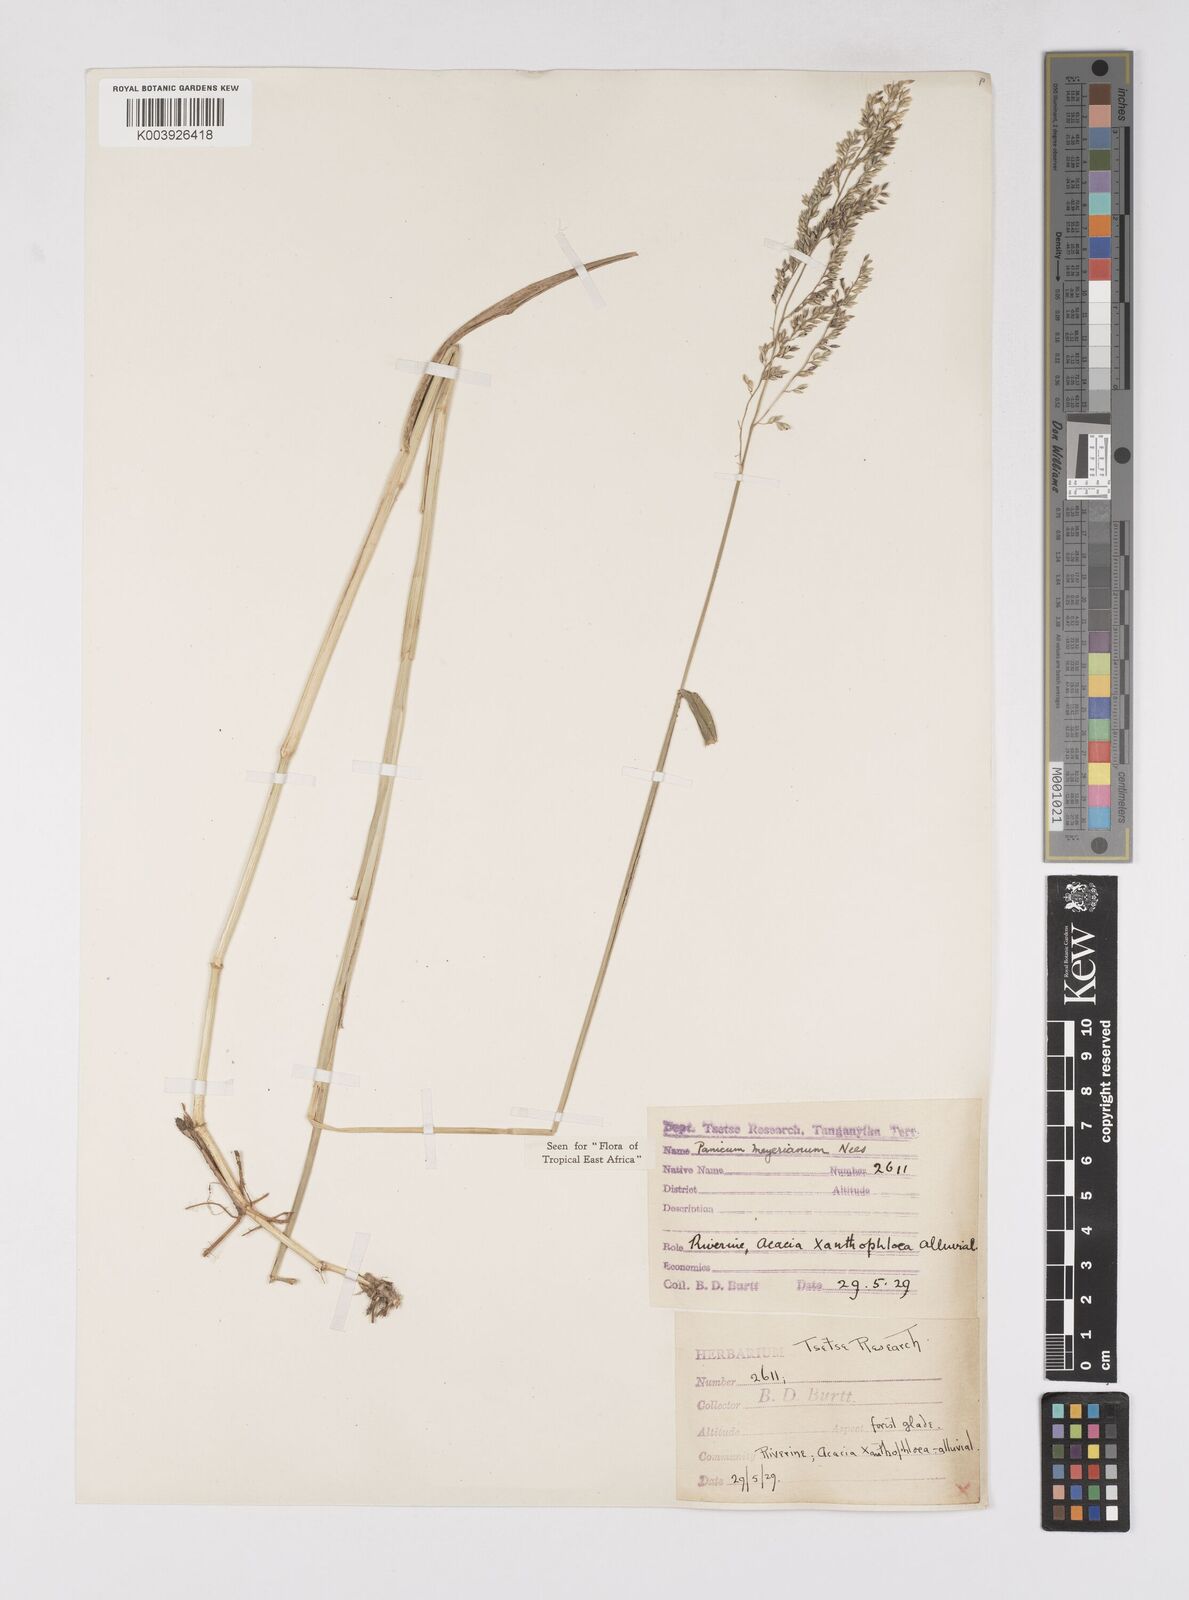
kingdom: Plantae
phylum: Tracheophyta
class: Liliopsida
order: Poales
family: Poaceae
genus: Eriochloa
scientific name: Eriochloa meyeriana
